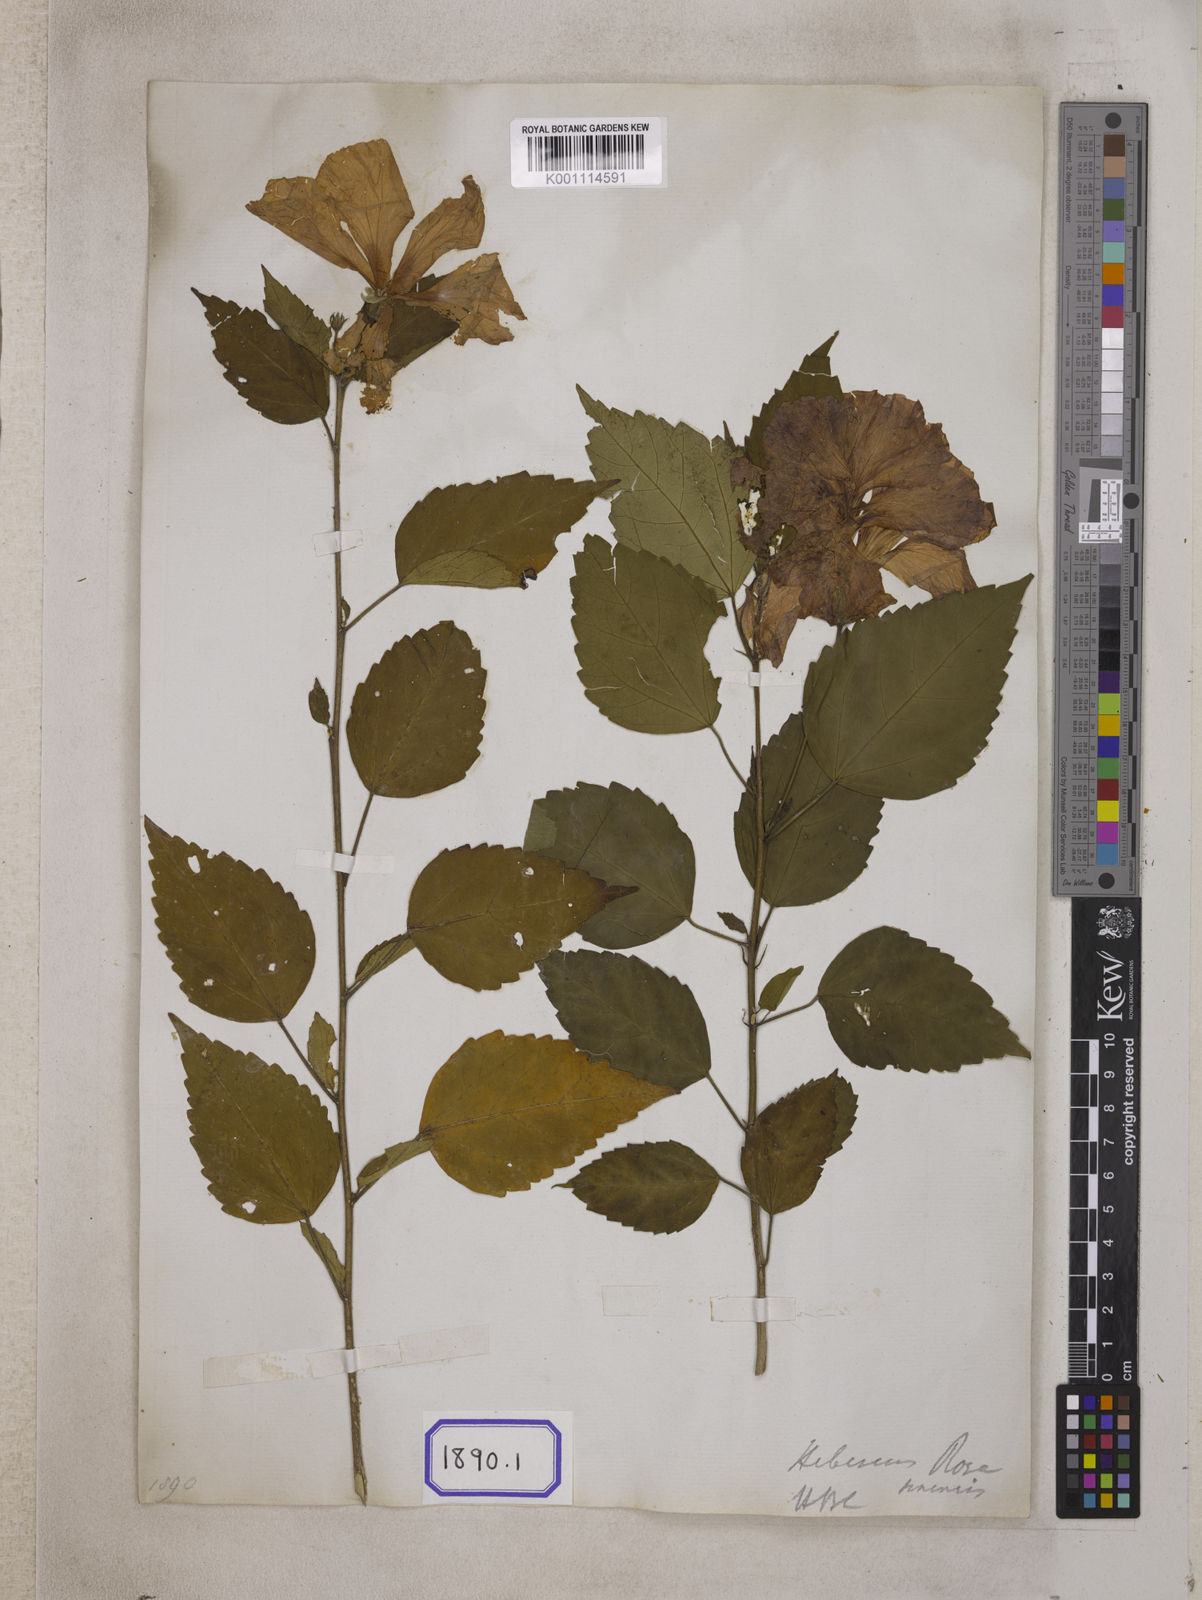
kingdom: Plantae
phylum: Tracheophyta
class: Magnoliopsida
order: Malvales
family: Malvaceae
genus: Hibiscus
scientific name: Hibiscus rosa-sinensis
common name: Hibiscus
